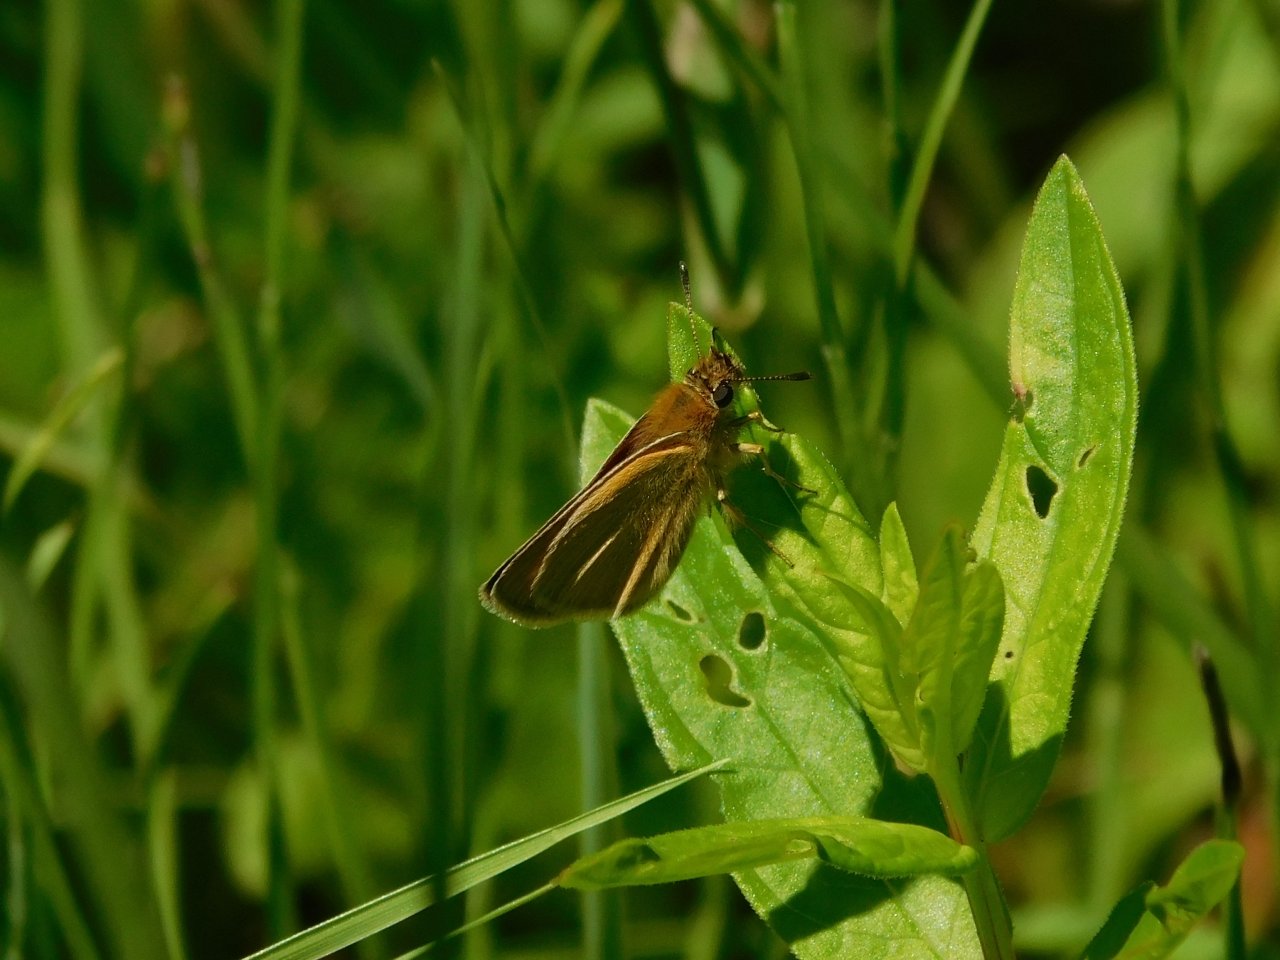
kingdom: Animalia
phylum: Arthropoda
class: Insecta
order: Lepidoptera
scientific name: Lepidoptera
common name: Butterflies
